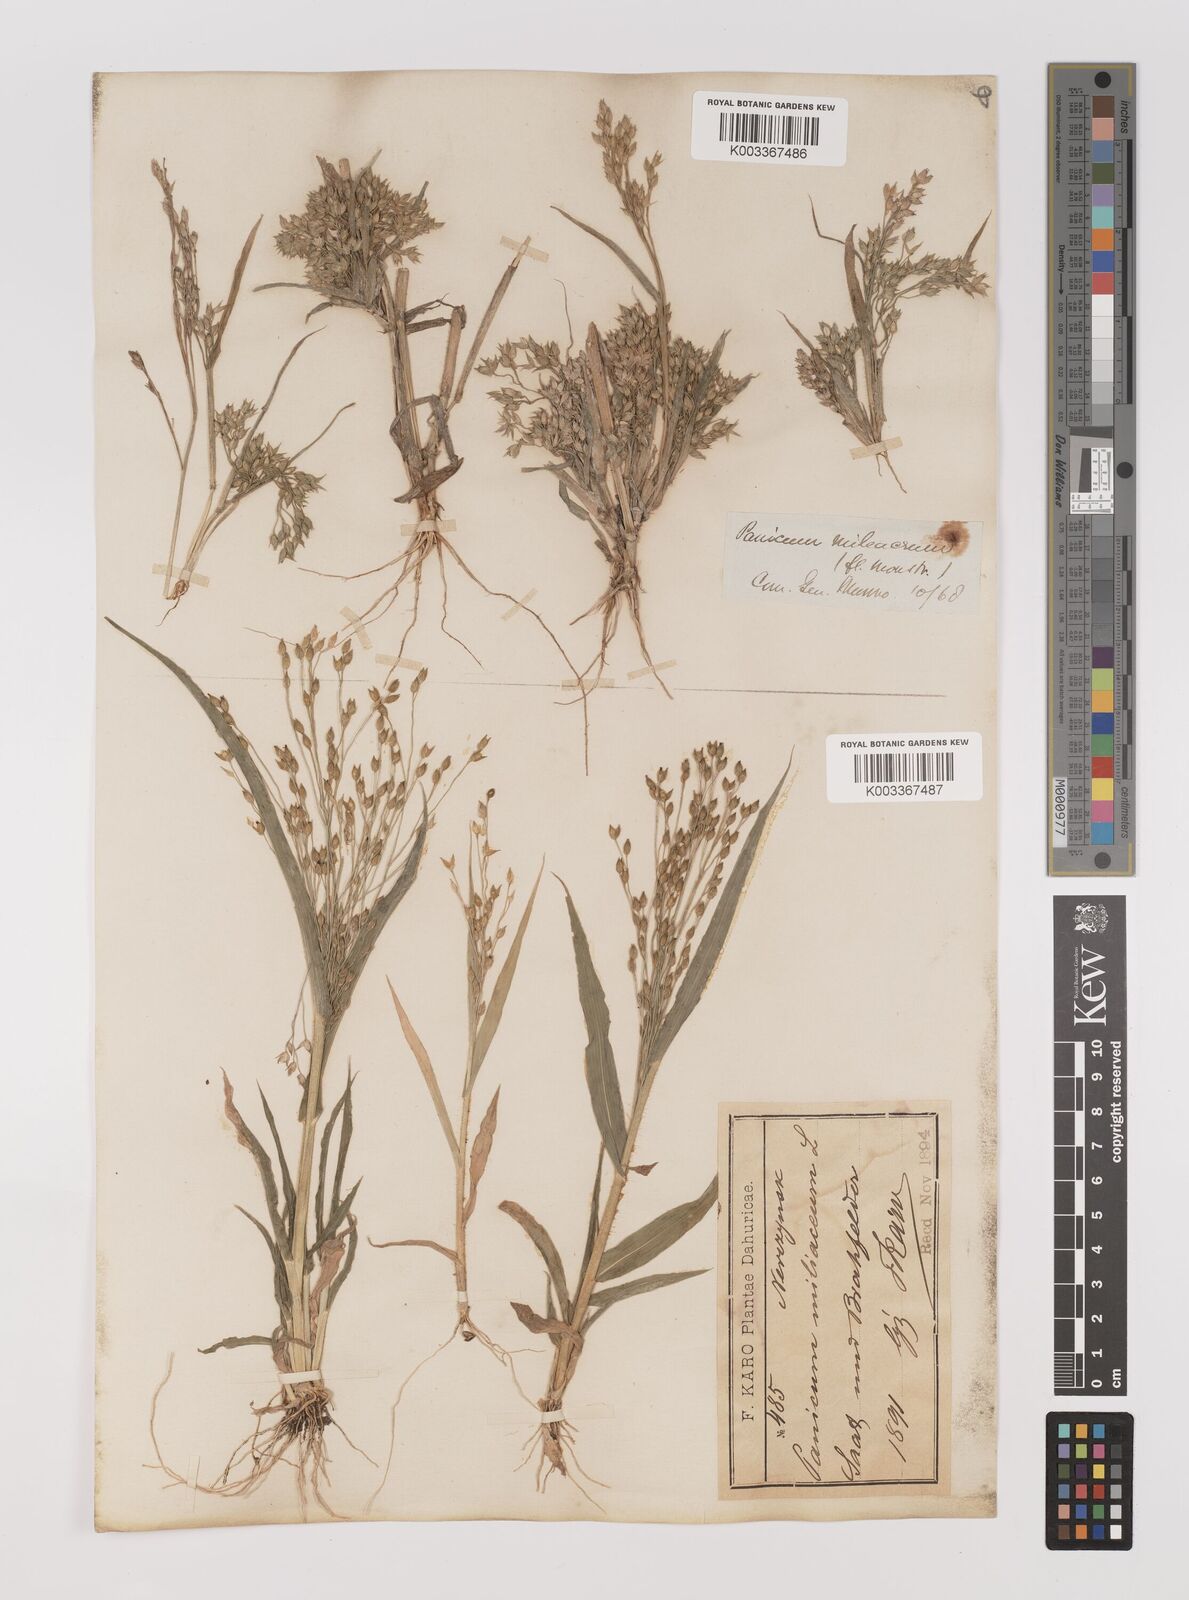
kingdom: Plantae
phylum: Tracheophyta
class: Liliopsida
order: Poales
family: Poaceae
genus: Panicum
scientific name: Panicum miliaceum
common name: Common millet
